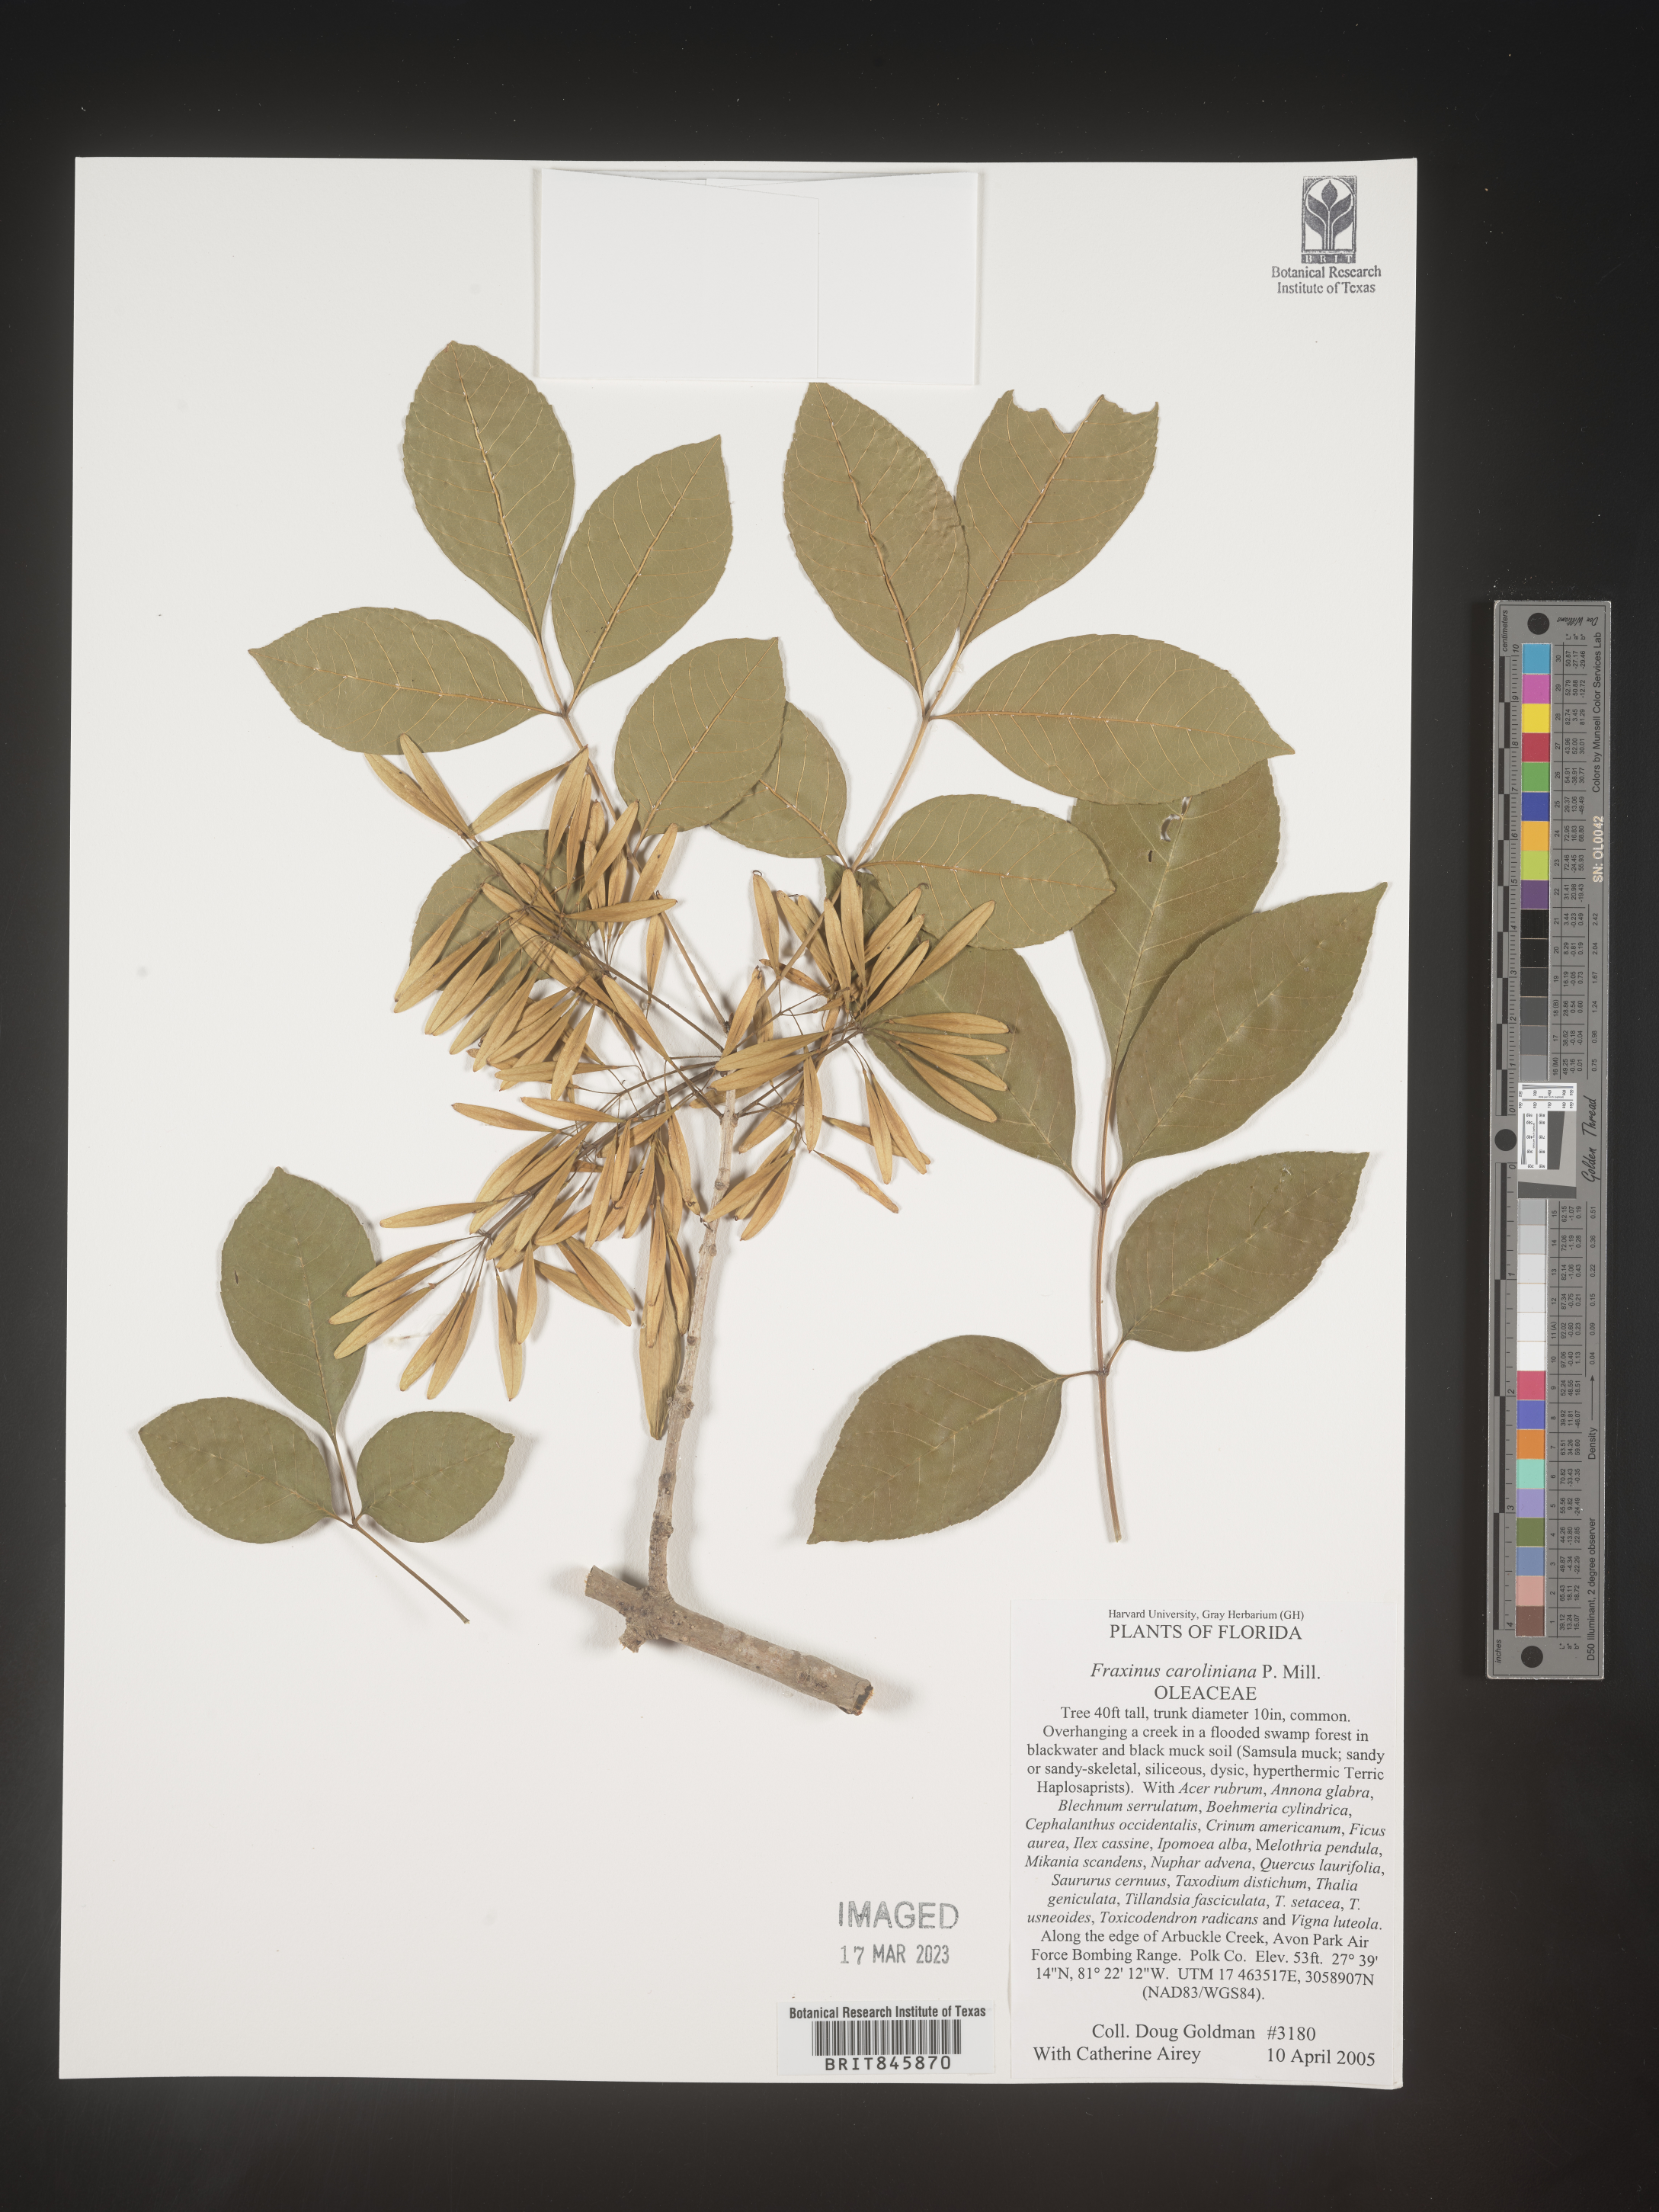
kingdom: Plantae
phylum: Tracheophyta
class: Magnoliopsida
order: Lamiales
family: Oleaceae
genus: Fraxinus
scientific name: Fraxinus caroliniana
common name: Carolina ash
